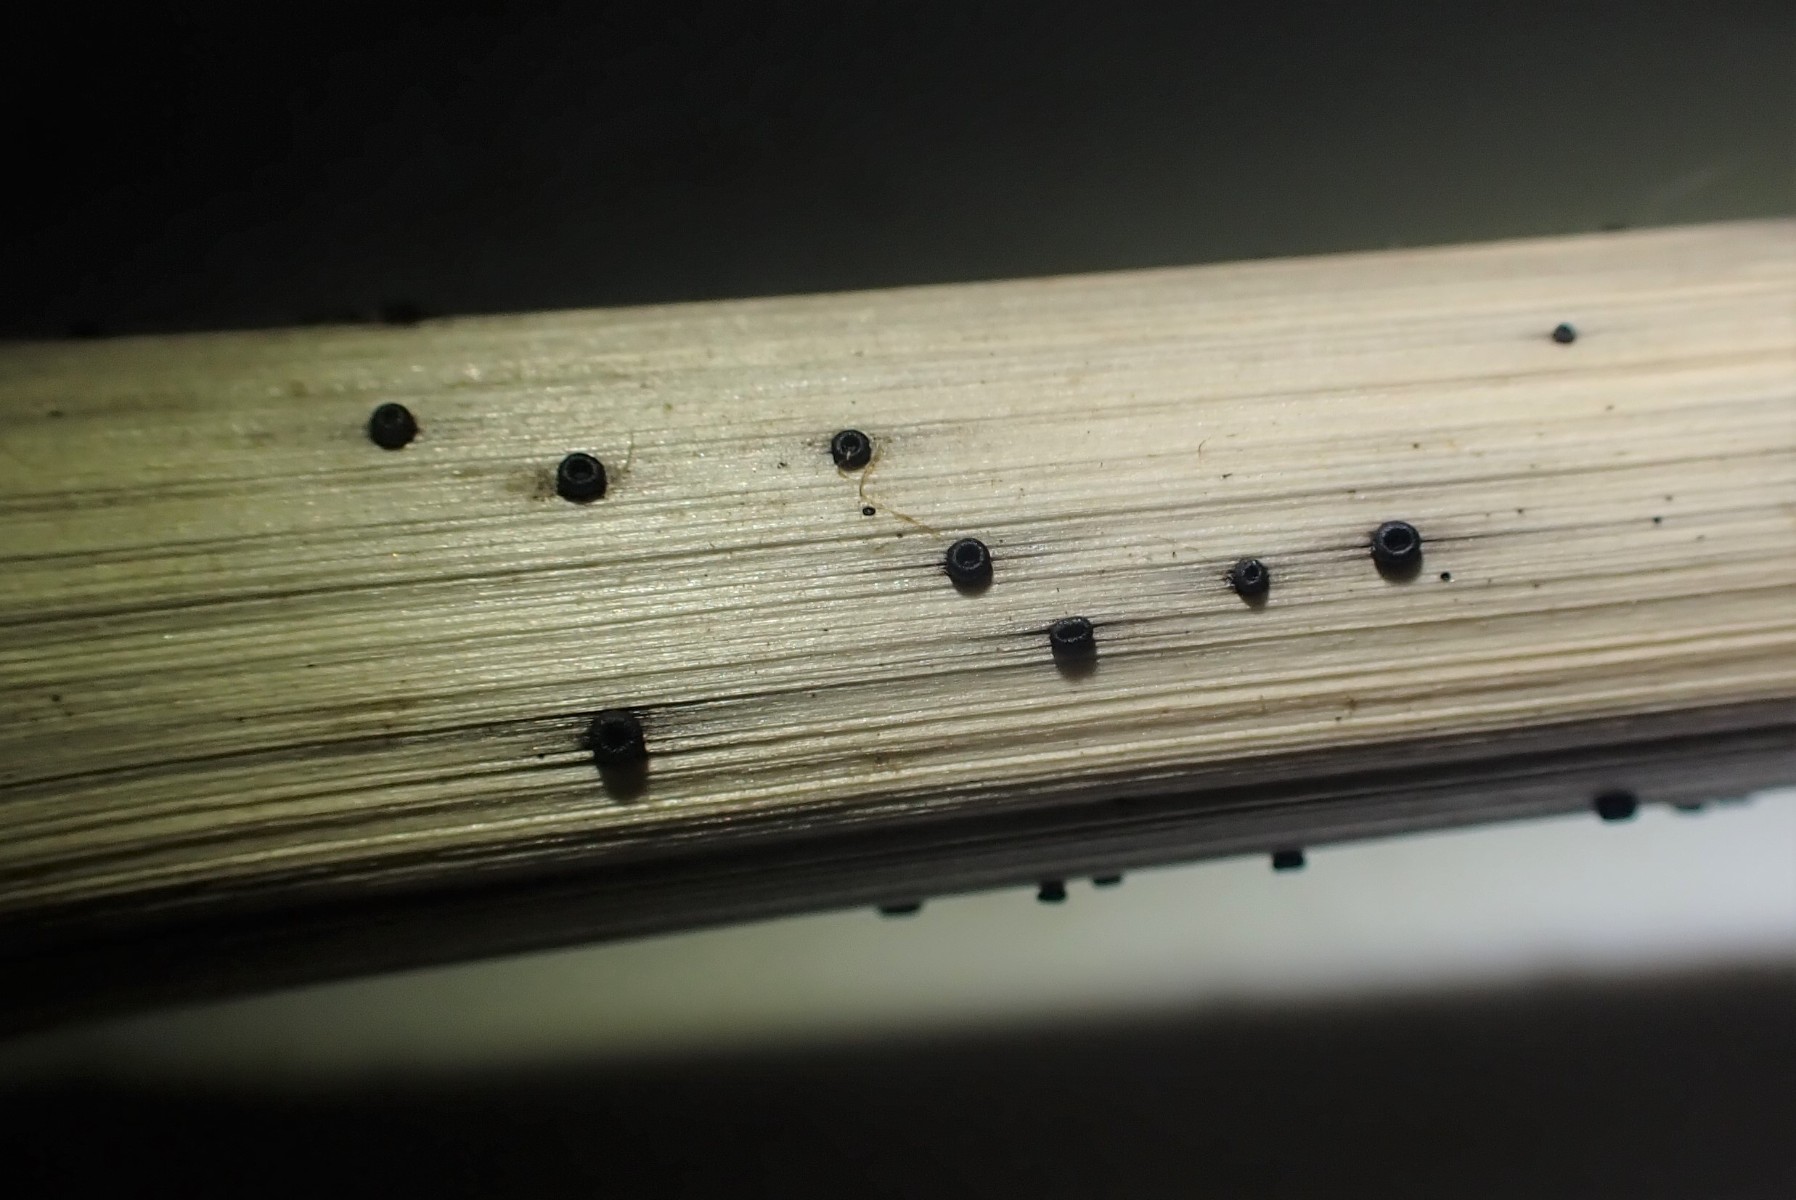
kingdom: Fungi
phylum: Ascomycota
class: Leotiomycetes
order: Helotiales
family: Heterosphaeriaceae
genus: Heterosphaeria
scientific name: Heterosphaeria
